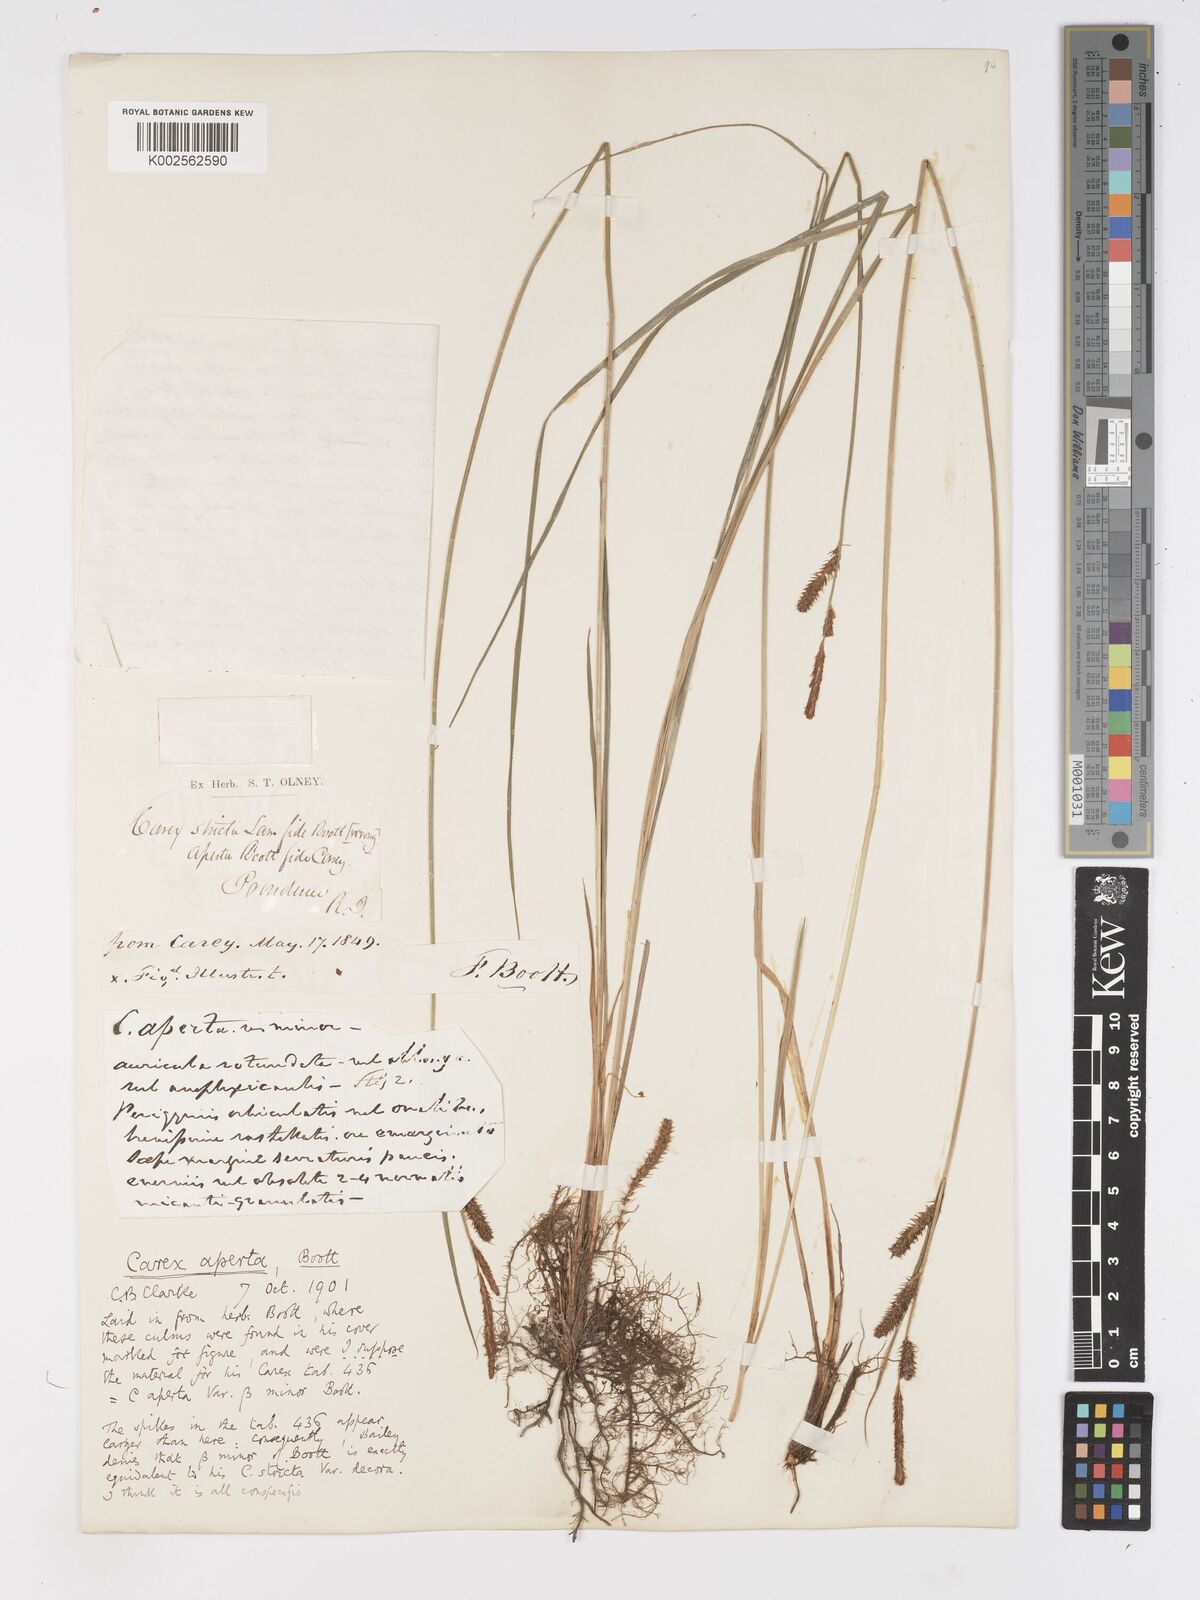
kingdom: Plantae
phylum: Tracheophyta
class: Liliopsida
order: Poales
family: Cyperaceae
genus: Carex
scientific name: Carex haydenii
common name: Hayden's sedge
